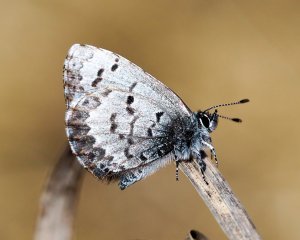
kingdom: Animalia
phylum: Arthropoda
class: Insecta
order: Lepidoptera
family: Lycaenidae
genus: Celastrina
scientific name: Celastrina lucia
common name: Northern Spring Azure
